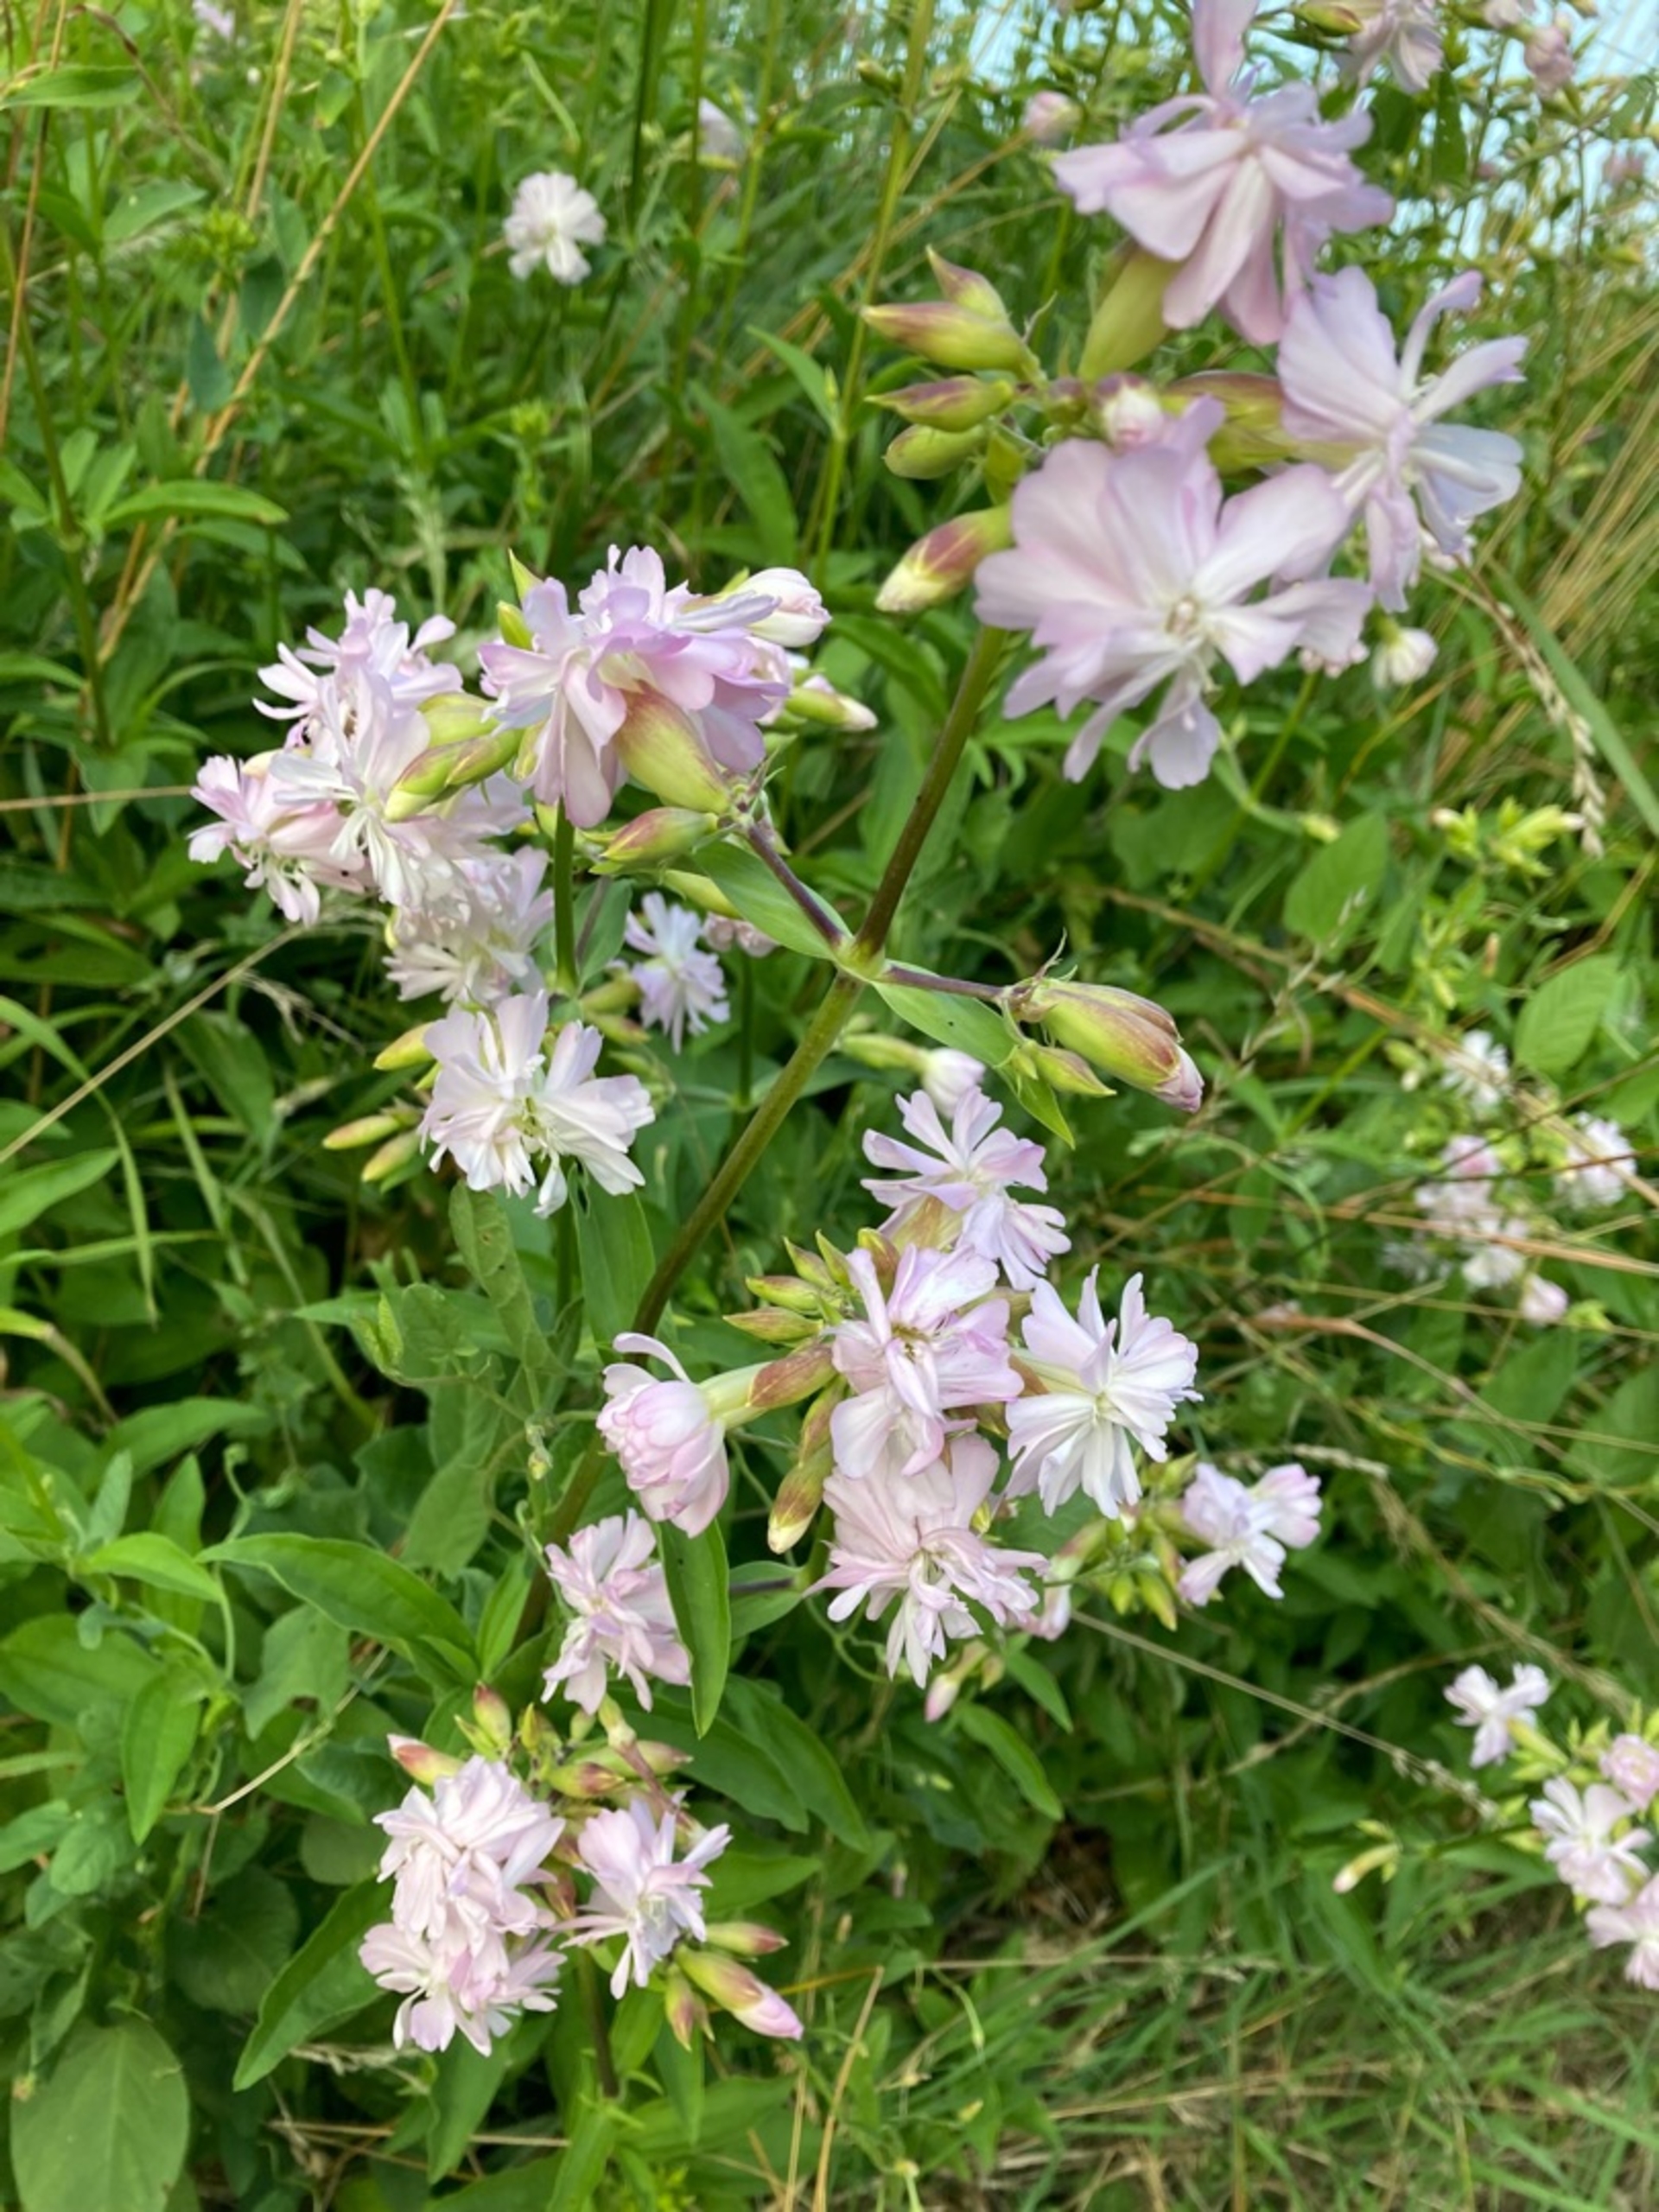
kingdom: Plantae
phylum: Tracheophyta
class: Magnoliopsida
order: Caryophyllales
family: Caryophyllaceae
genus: Saponaria
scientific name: Saponaria officinalis
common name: Sæbeurt
